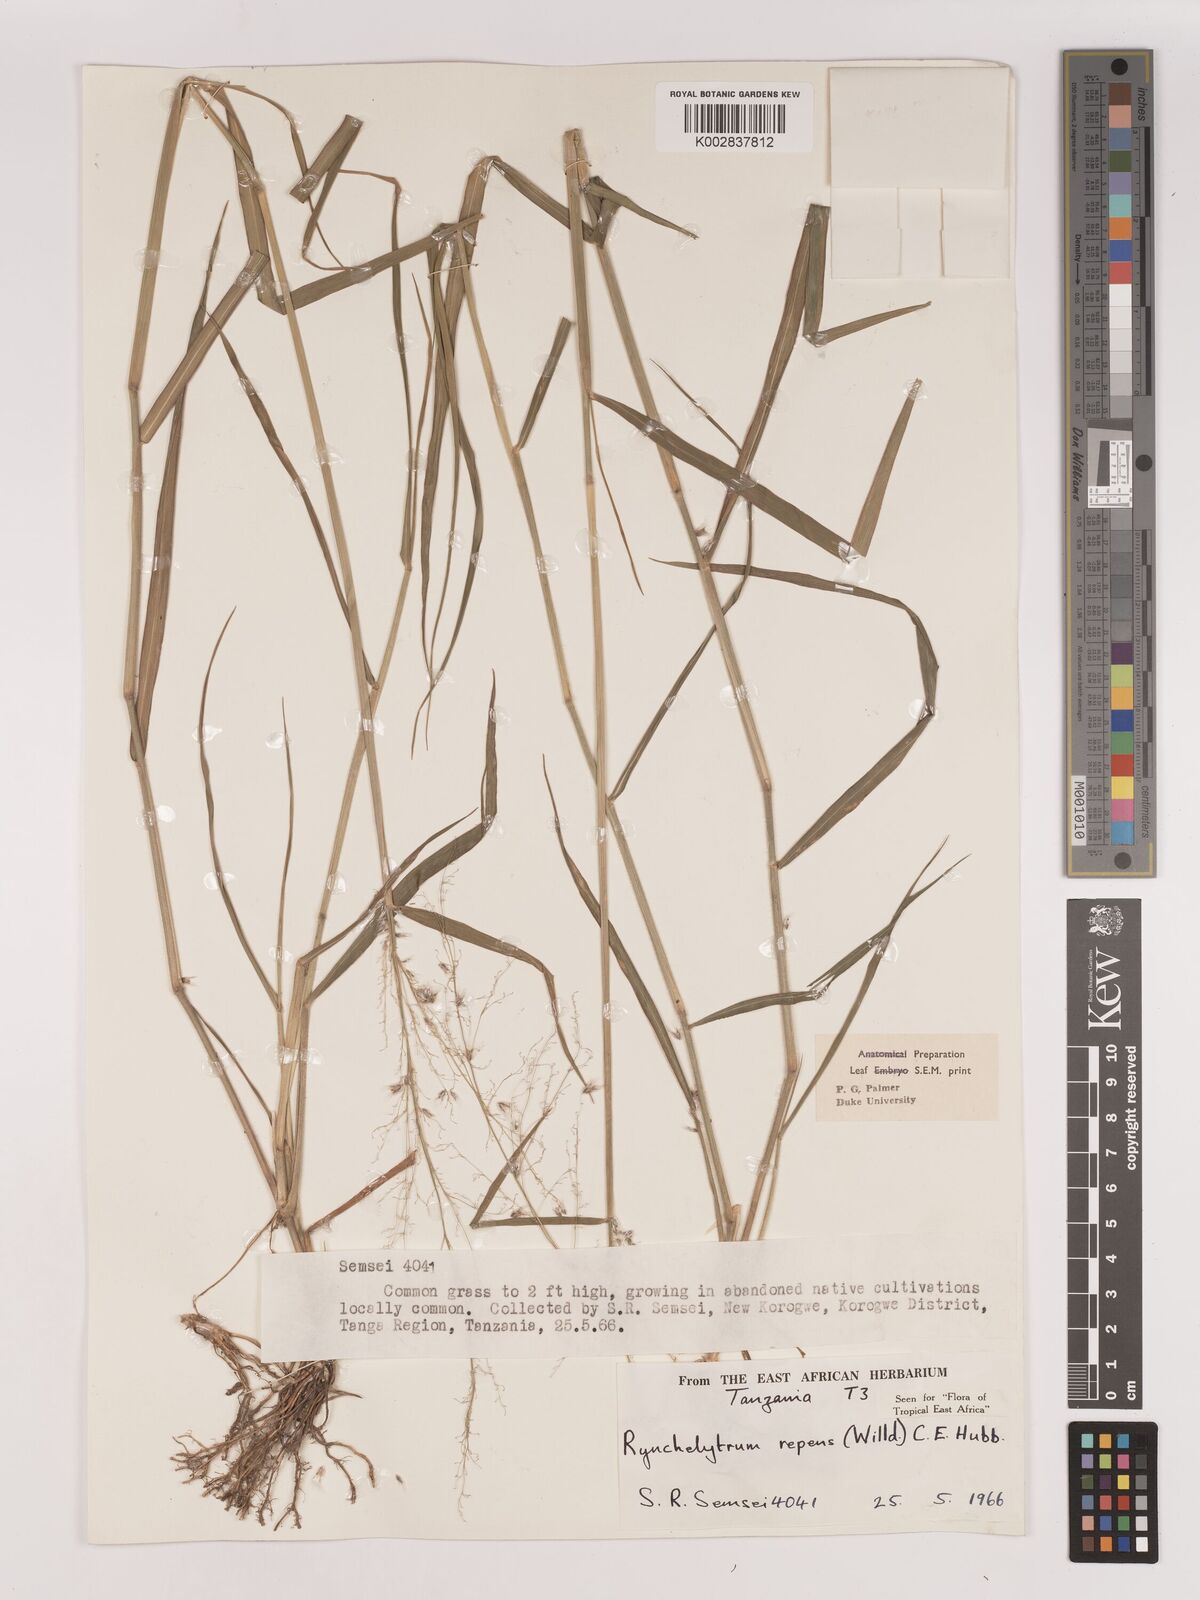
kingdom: Plantae
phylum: Tracheophyta
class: Liliopsida
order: Poales
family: Poaceae
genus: Melinis
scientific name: Melinis repens
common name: Rose natal grass
